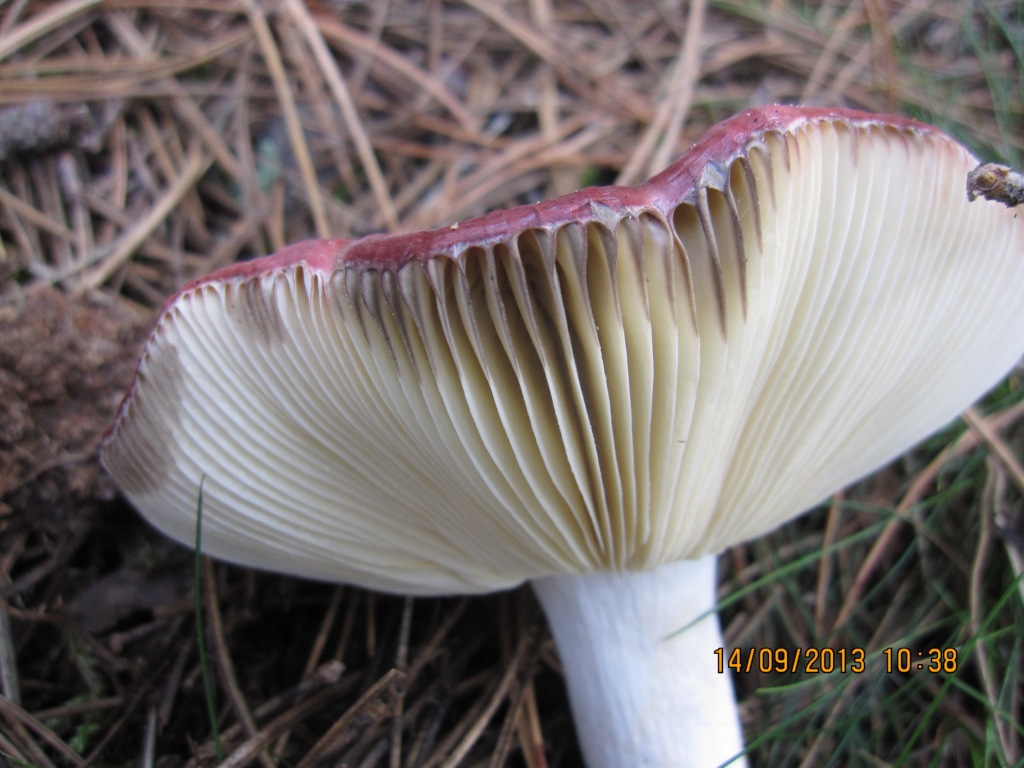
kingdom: Fungi
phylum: Basidiomycota
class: Agaricomycetes
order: Russulales
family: Russulaceae
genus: Russula
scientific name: Russula vinosa
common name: vinrød skørhat
